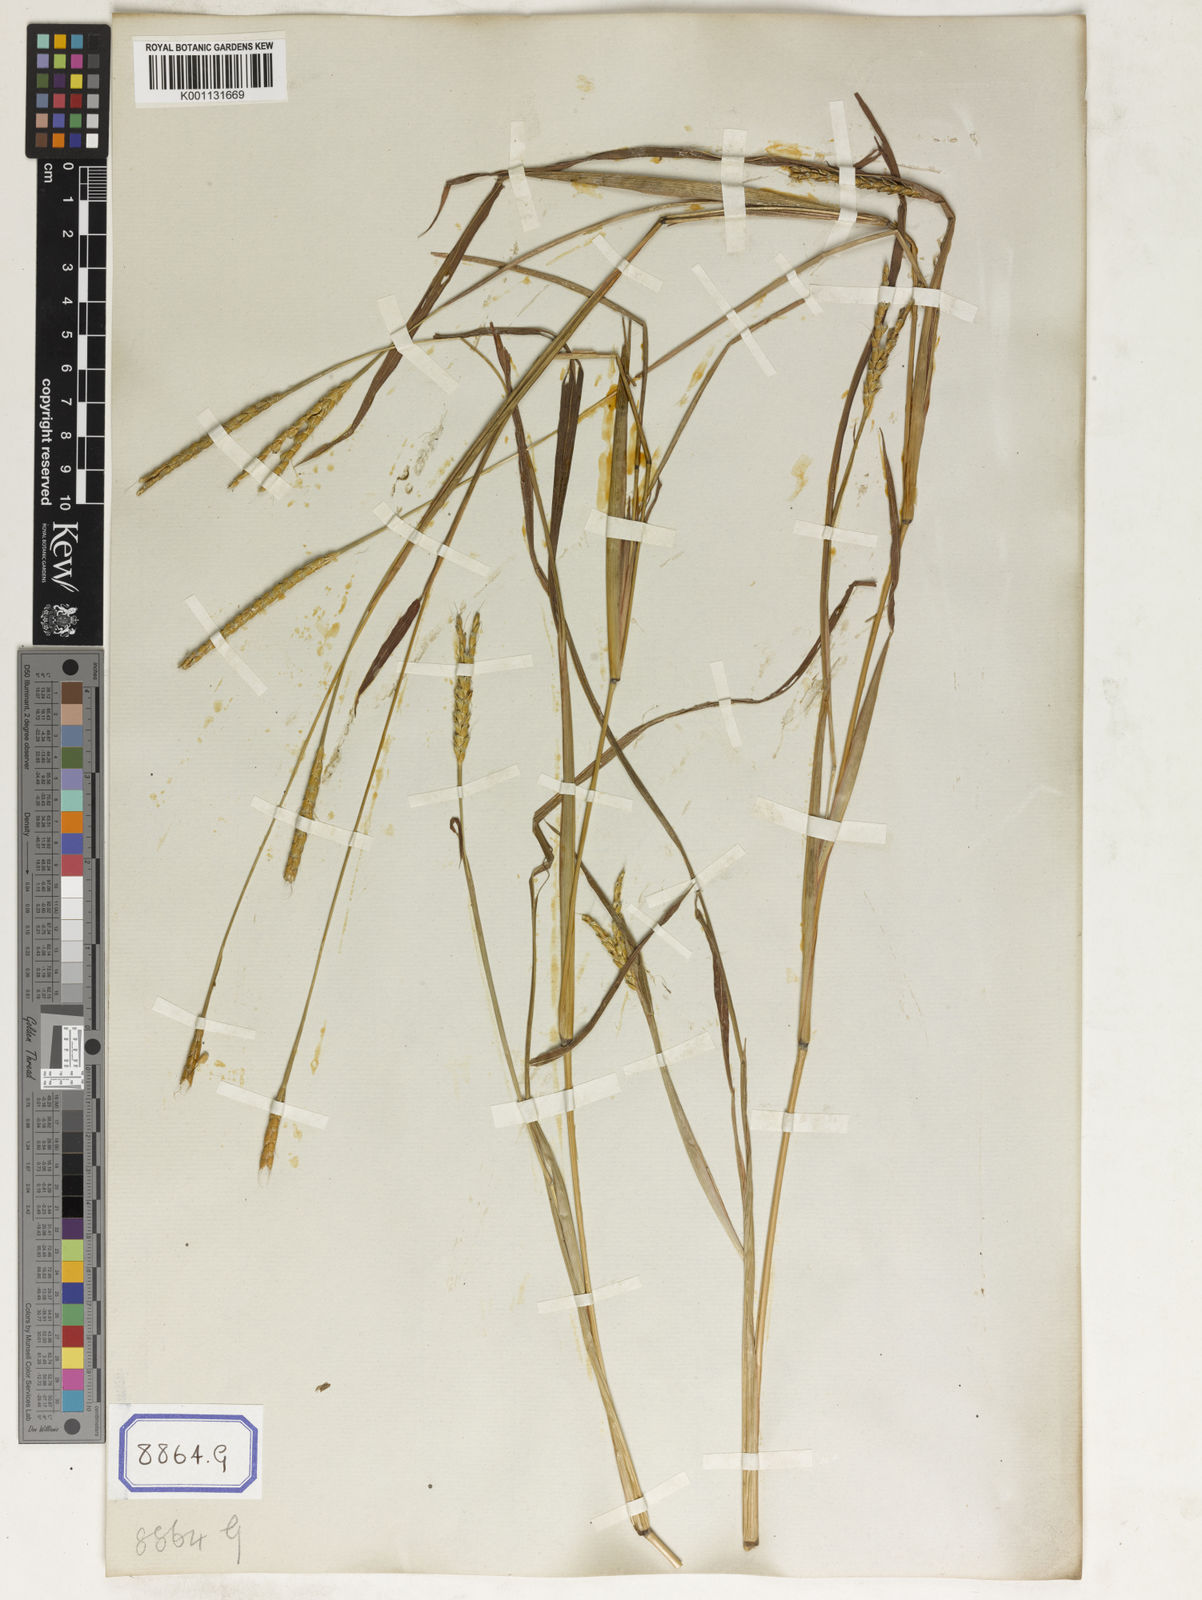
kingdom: Plantae
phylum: Tracheophyta
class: Liliopsida
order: Poales
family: Poaceae
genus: Ischaemum
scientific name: Ischaemum rugosum
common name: Saramatta grass
